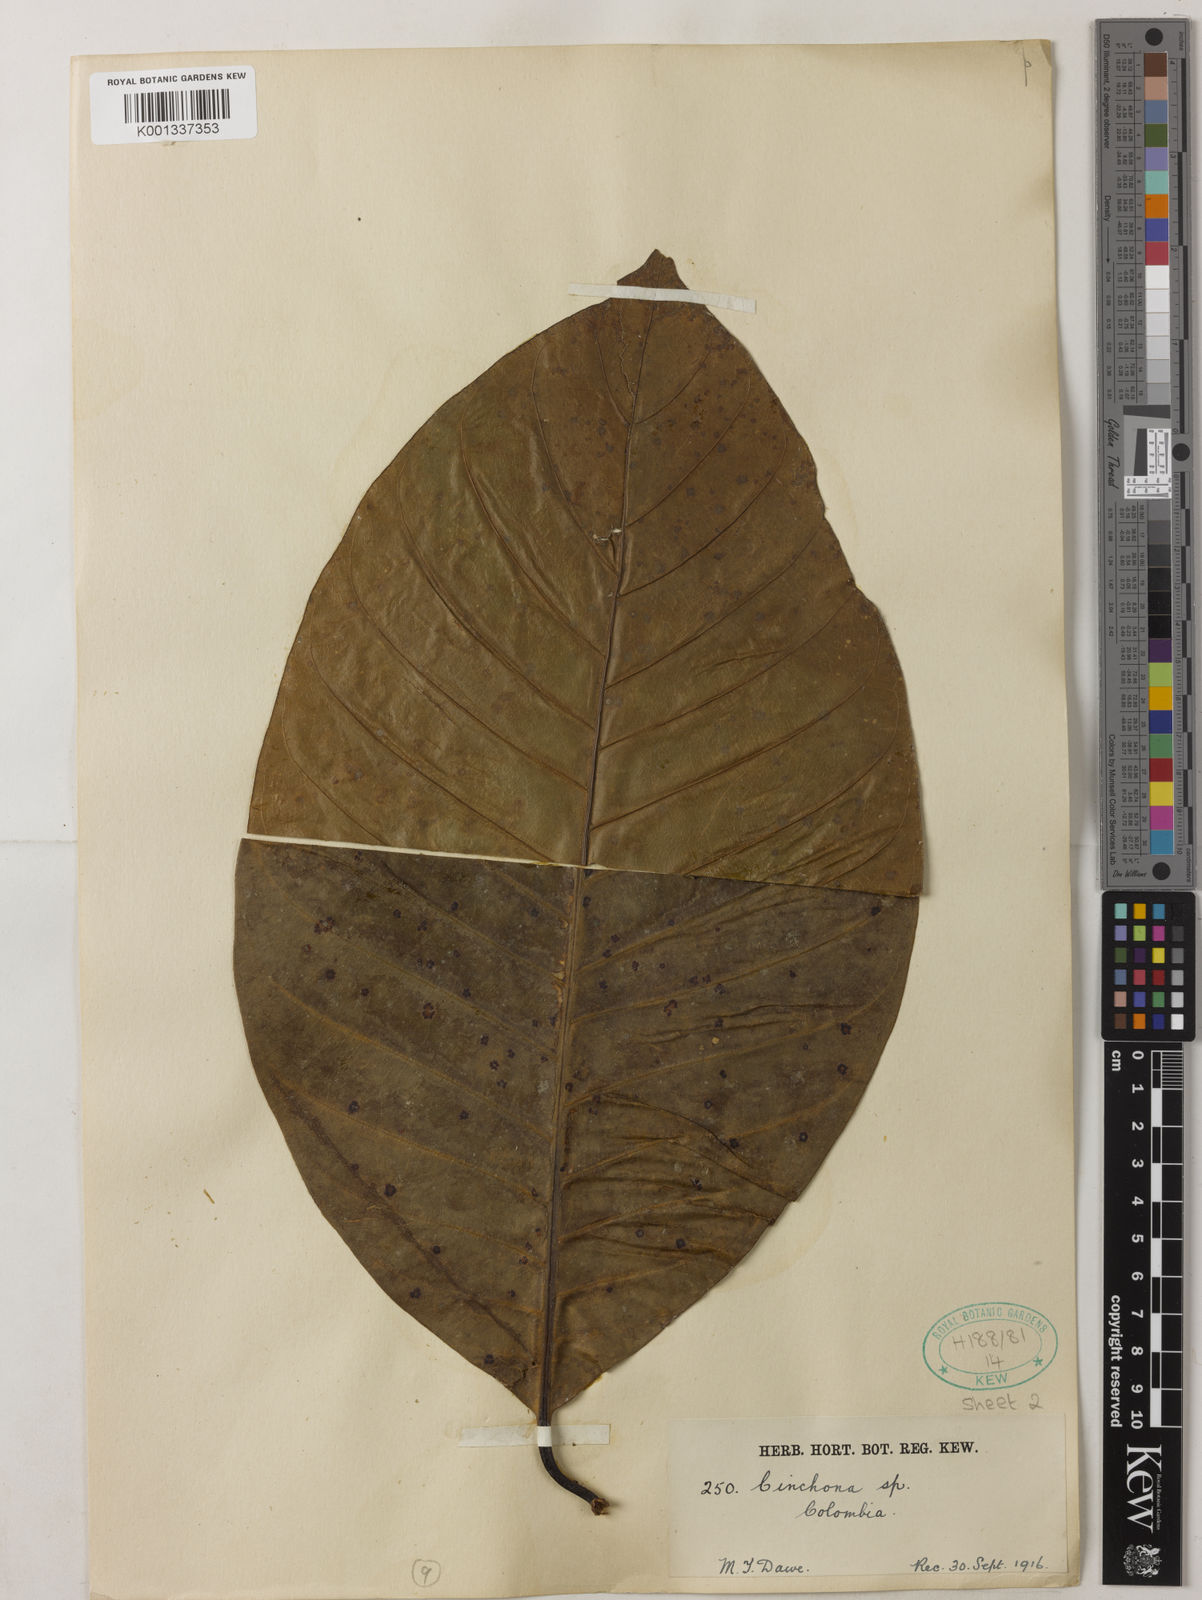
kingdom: Plantae
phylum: Tracheophyta
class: Magnoliopsida
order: Gentianales
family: Rubiaceae
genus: Cinchona
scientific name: Cinchona
